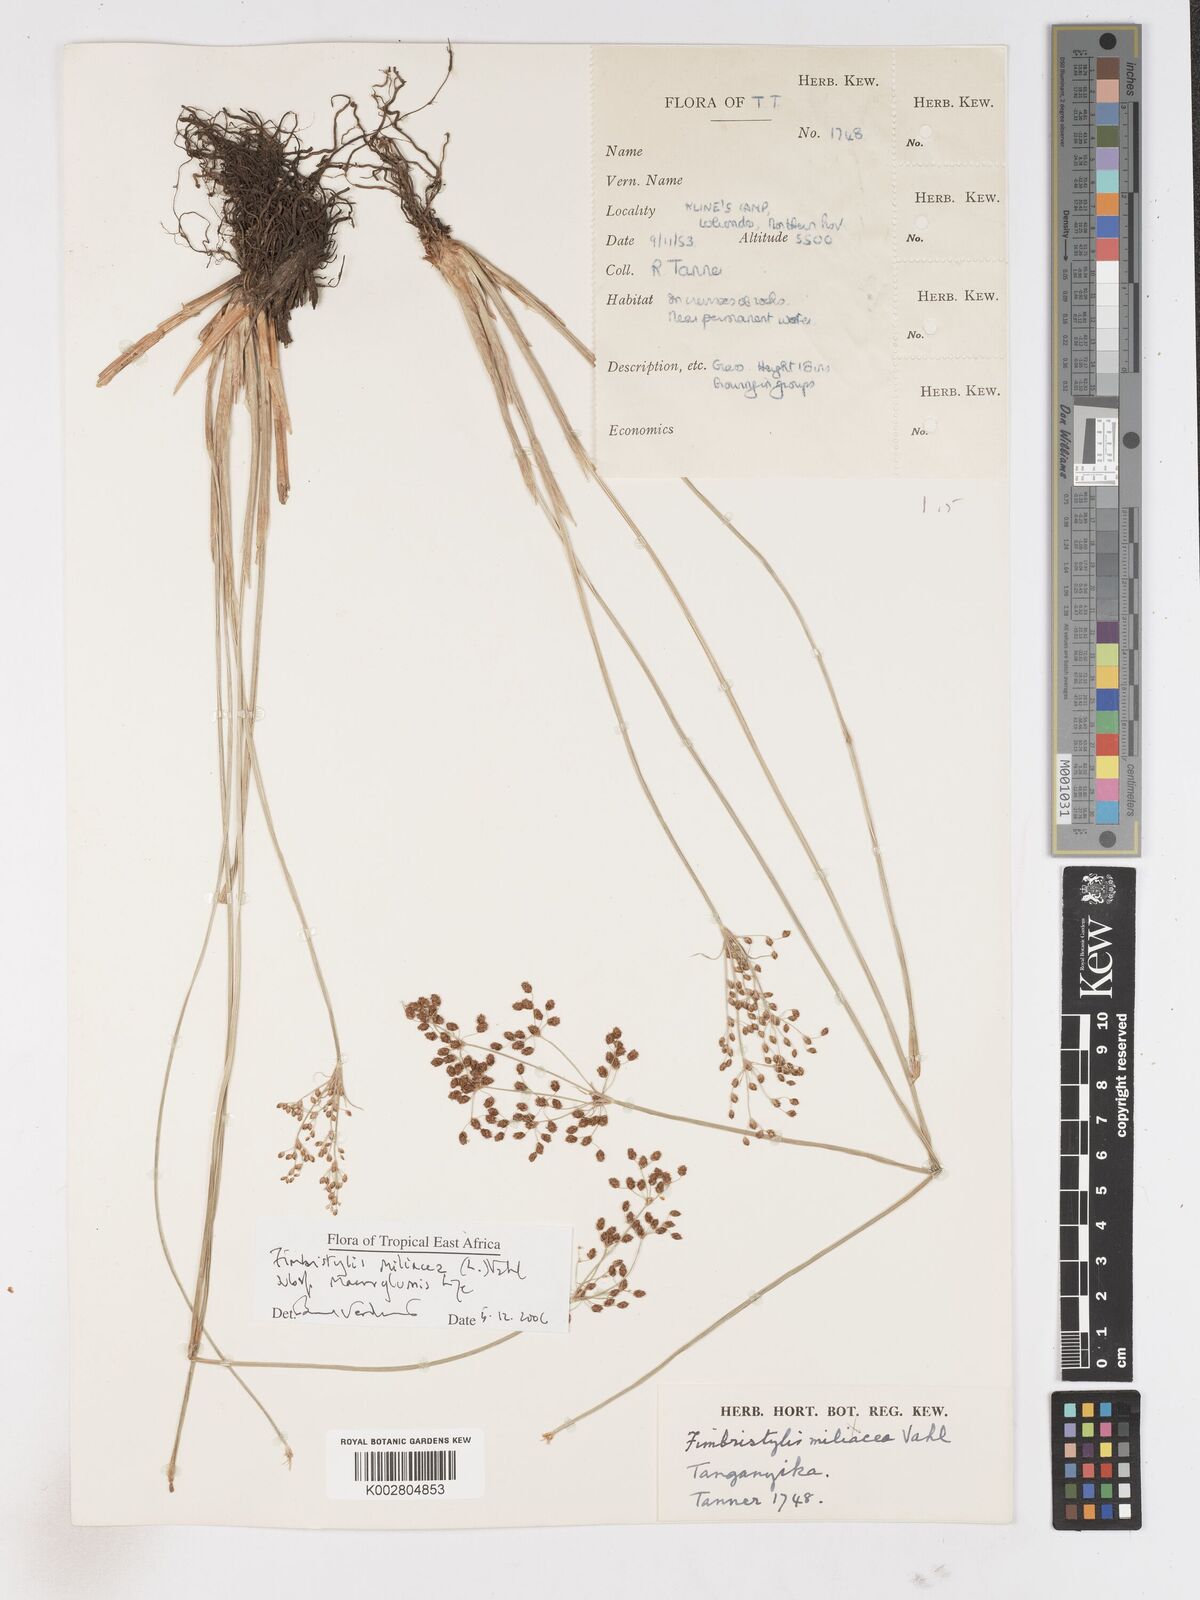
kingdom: Plantae
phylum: Tracheophyta
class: Liliopsida
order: Poales
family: Cyperaceae
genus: Fimbristylis
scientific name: Fimbristylis quinquangularis
